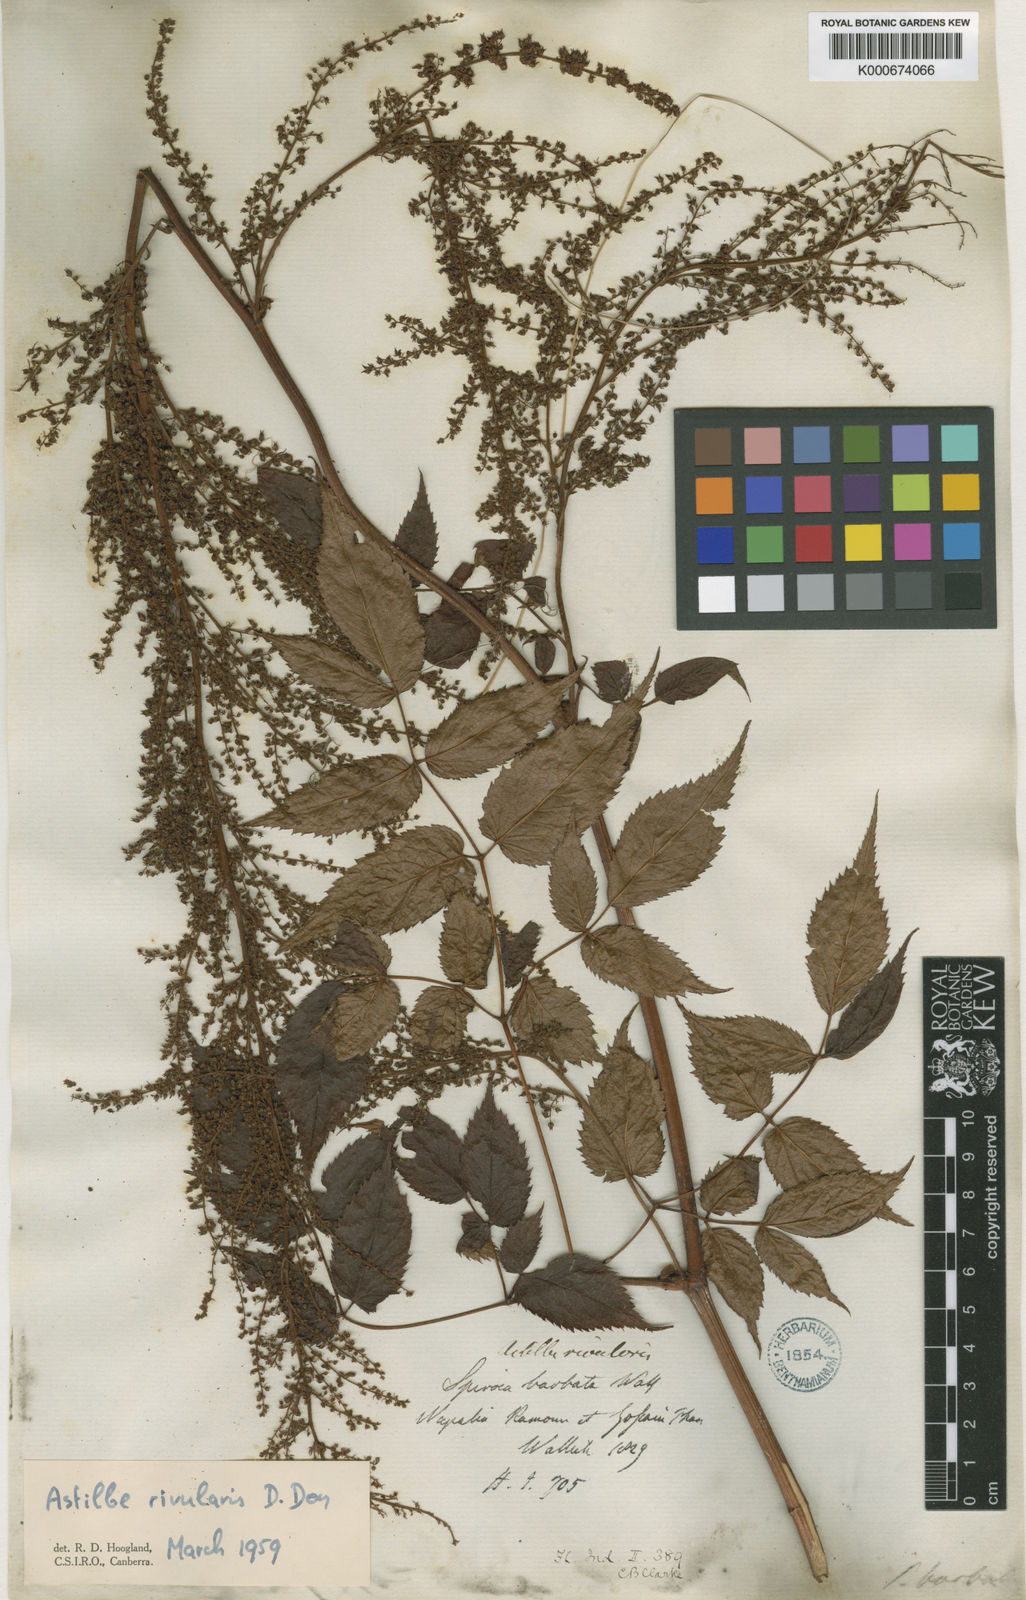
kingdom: Plantae
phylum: Tracheophyta
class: Magnoliopsida
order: Saxifragales
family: Saxifragaceae
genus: Astilbe
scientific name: Astilbe rivularis
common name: Tall false-buck's-beard
